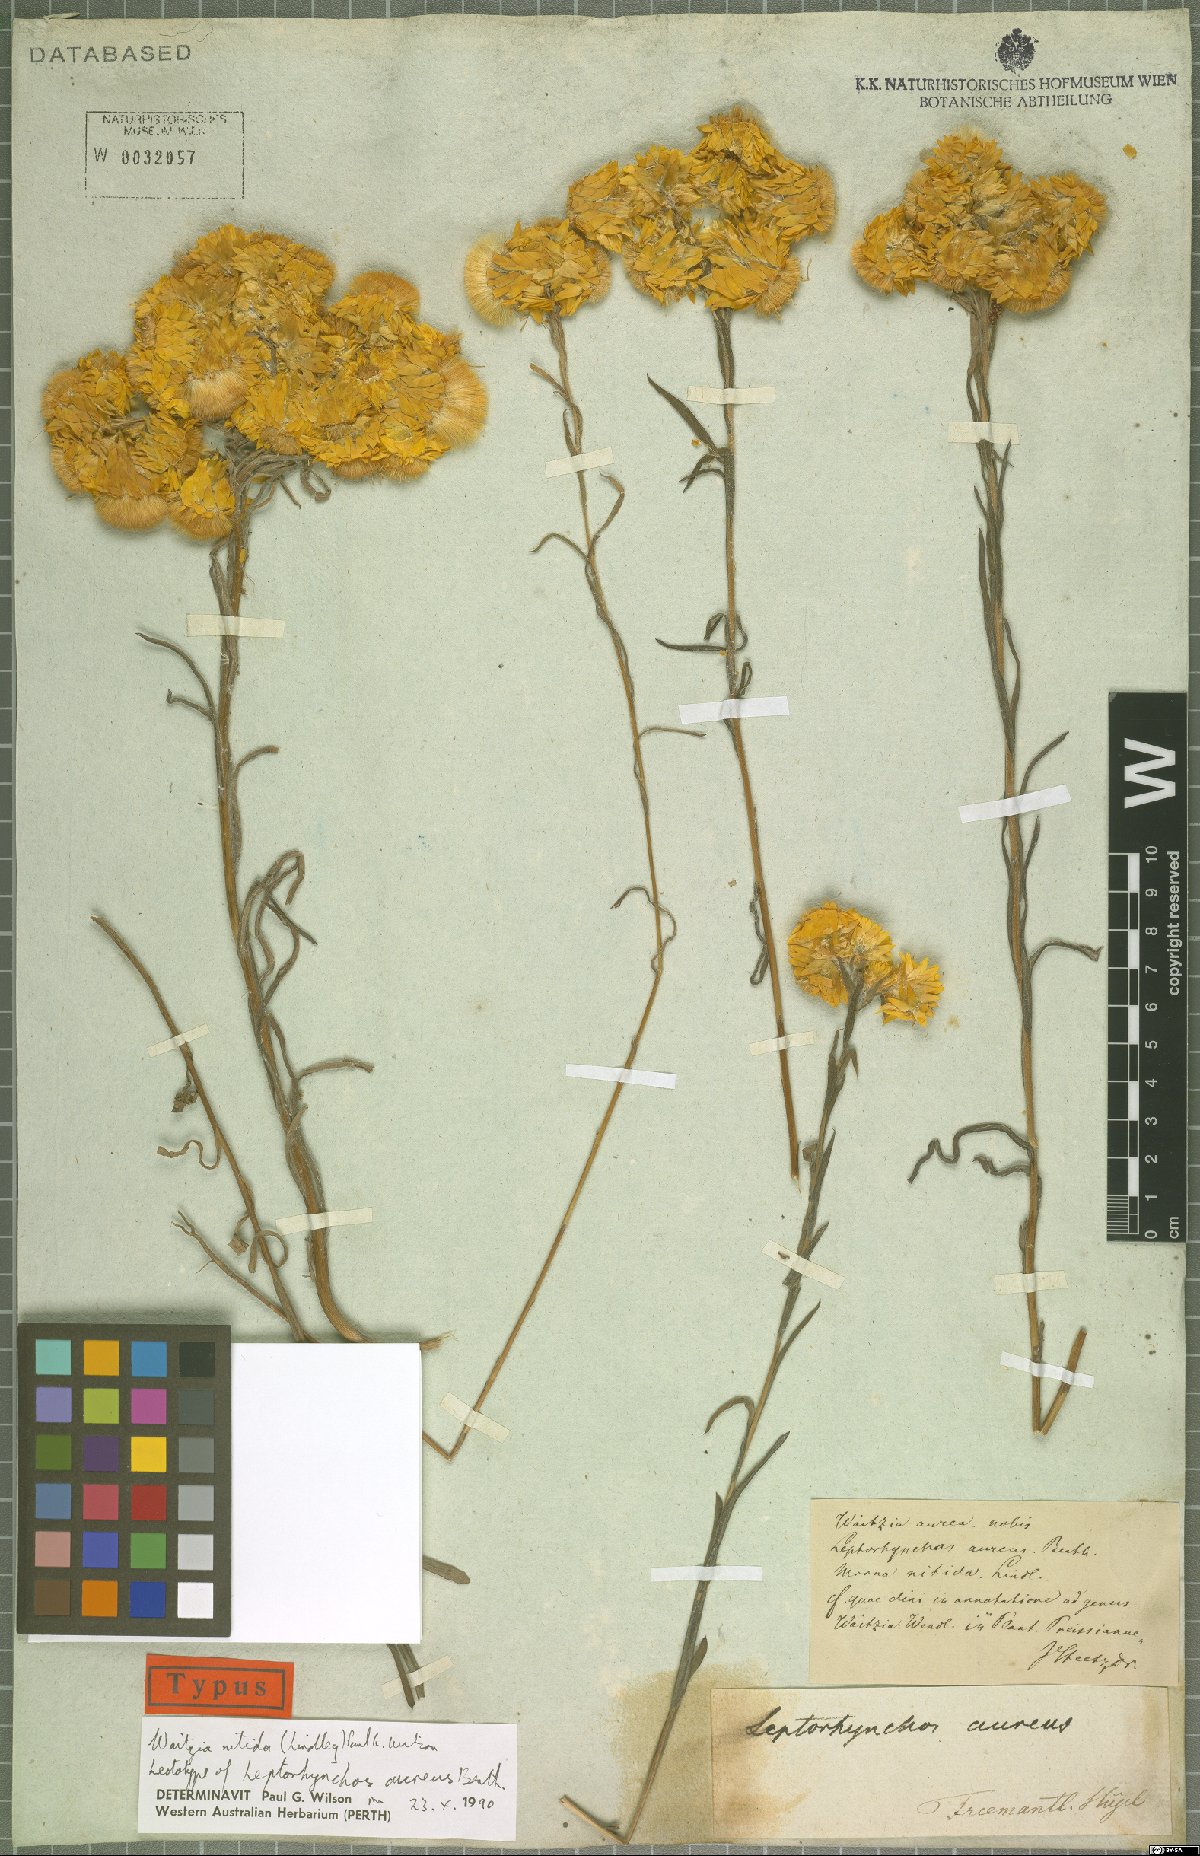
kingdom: Plantae
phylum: Tracheophyta
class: Magnoliopsida
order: Asterales
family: Asteraceae
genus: Waitzia
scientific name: Waitzia nitida
